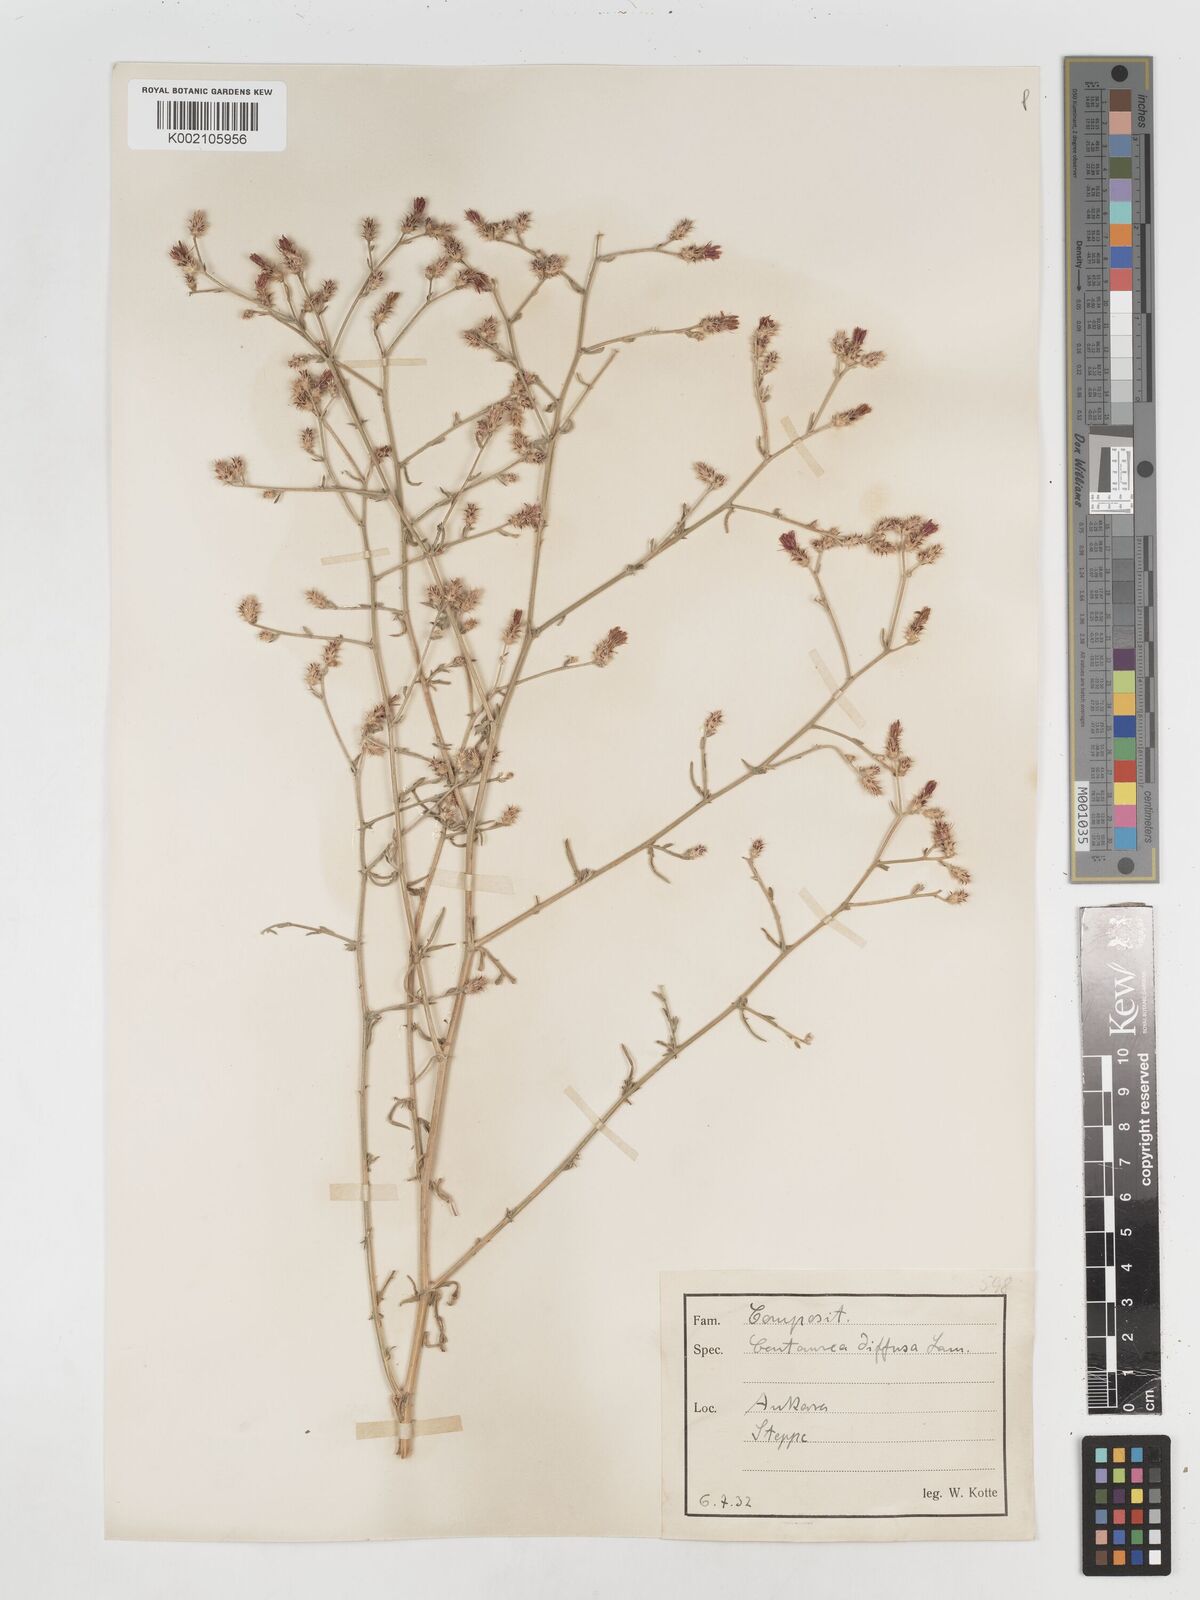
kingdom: Plantae
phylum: Tracheophyta
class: Magnoliopsida
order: Asterales
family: Asteraceae
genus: Centaurea
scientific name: Centaurea
